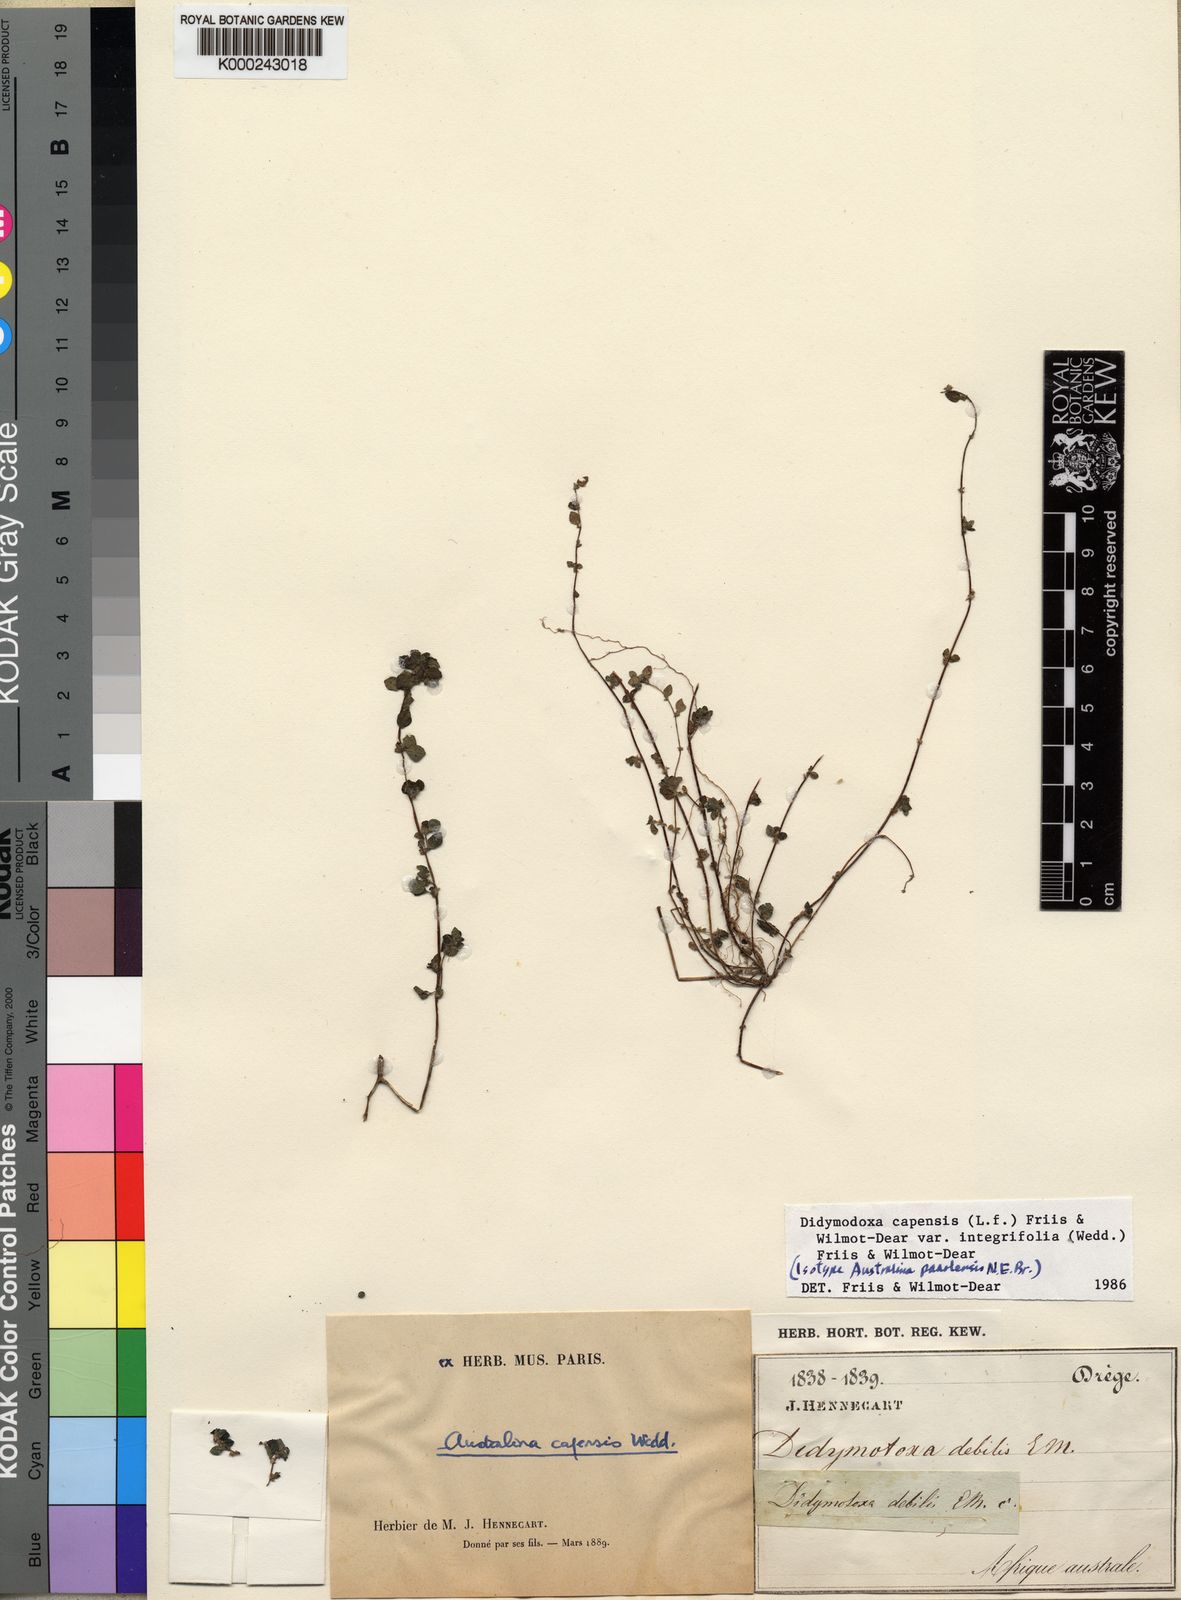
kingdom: Plantae
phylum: Tracheophyta
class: Magnoliopsida
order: Rosales
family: Urticaceae
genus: Didymodoxa
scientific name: Didymodoxa capensis
